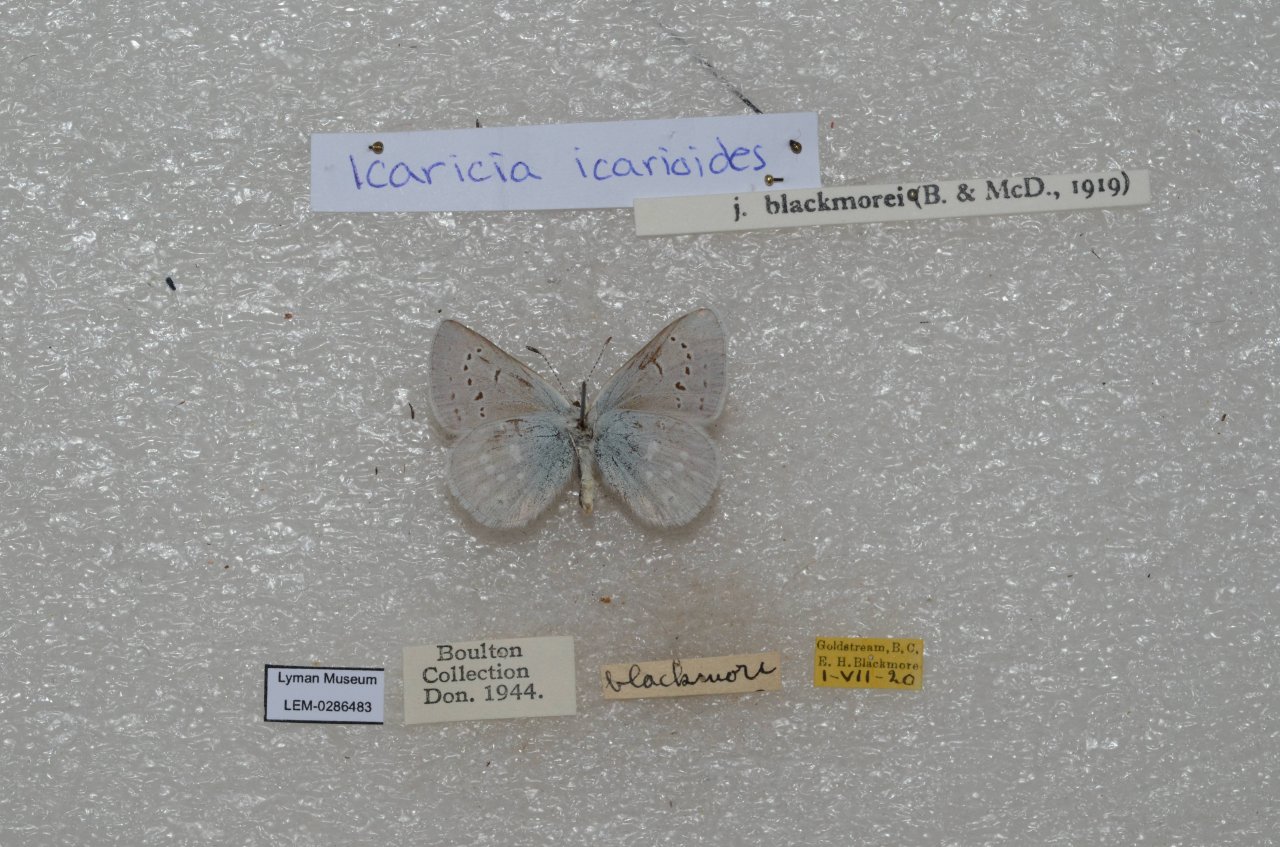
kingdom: Animalia
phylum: Arthropoda
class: Insecta
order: Lepidoptera
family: Lycaenidae
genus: Icaricia
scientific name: Icaricia icarioides
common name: Boisduval's Blue
